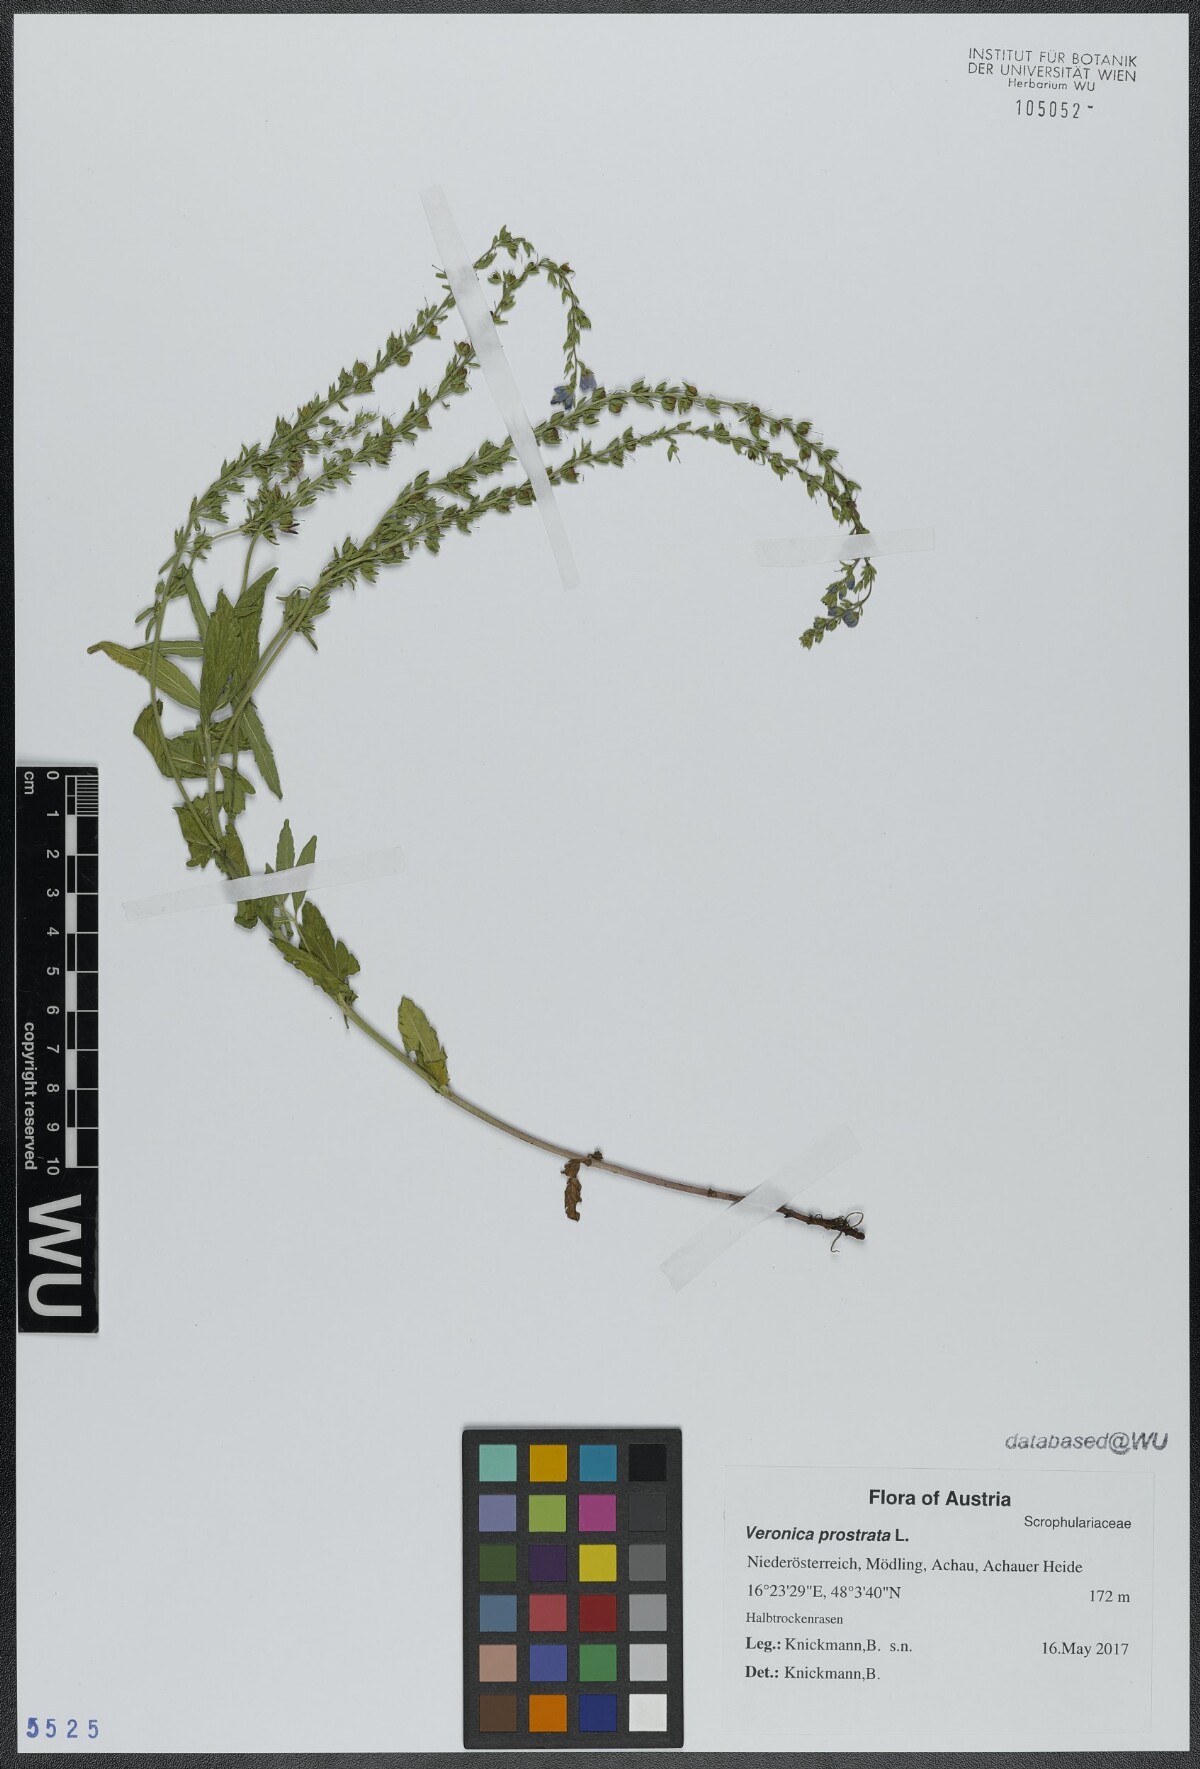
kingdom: Plantae
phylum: Tracheophyta
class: Magnoliopsida
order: Lamiales
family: Plantaginaceae
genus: Veronica
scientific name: Veronica prostrata
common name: Prostrate speedwell
